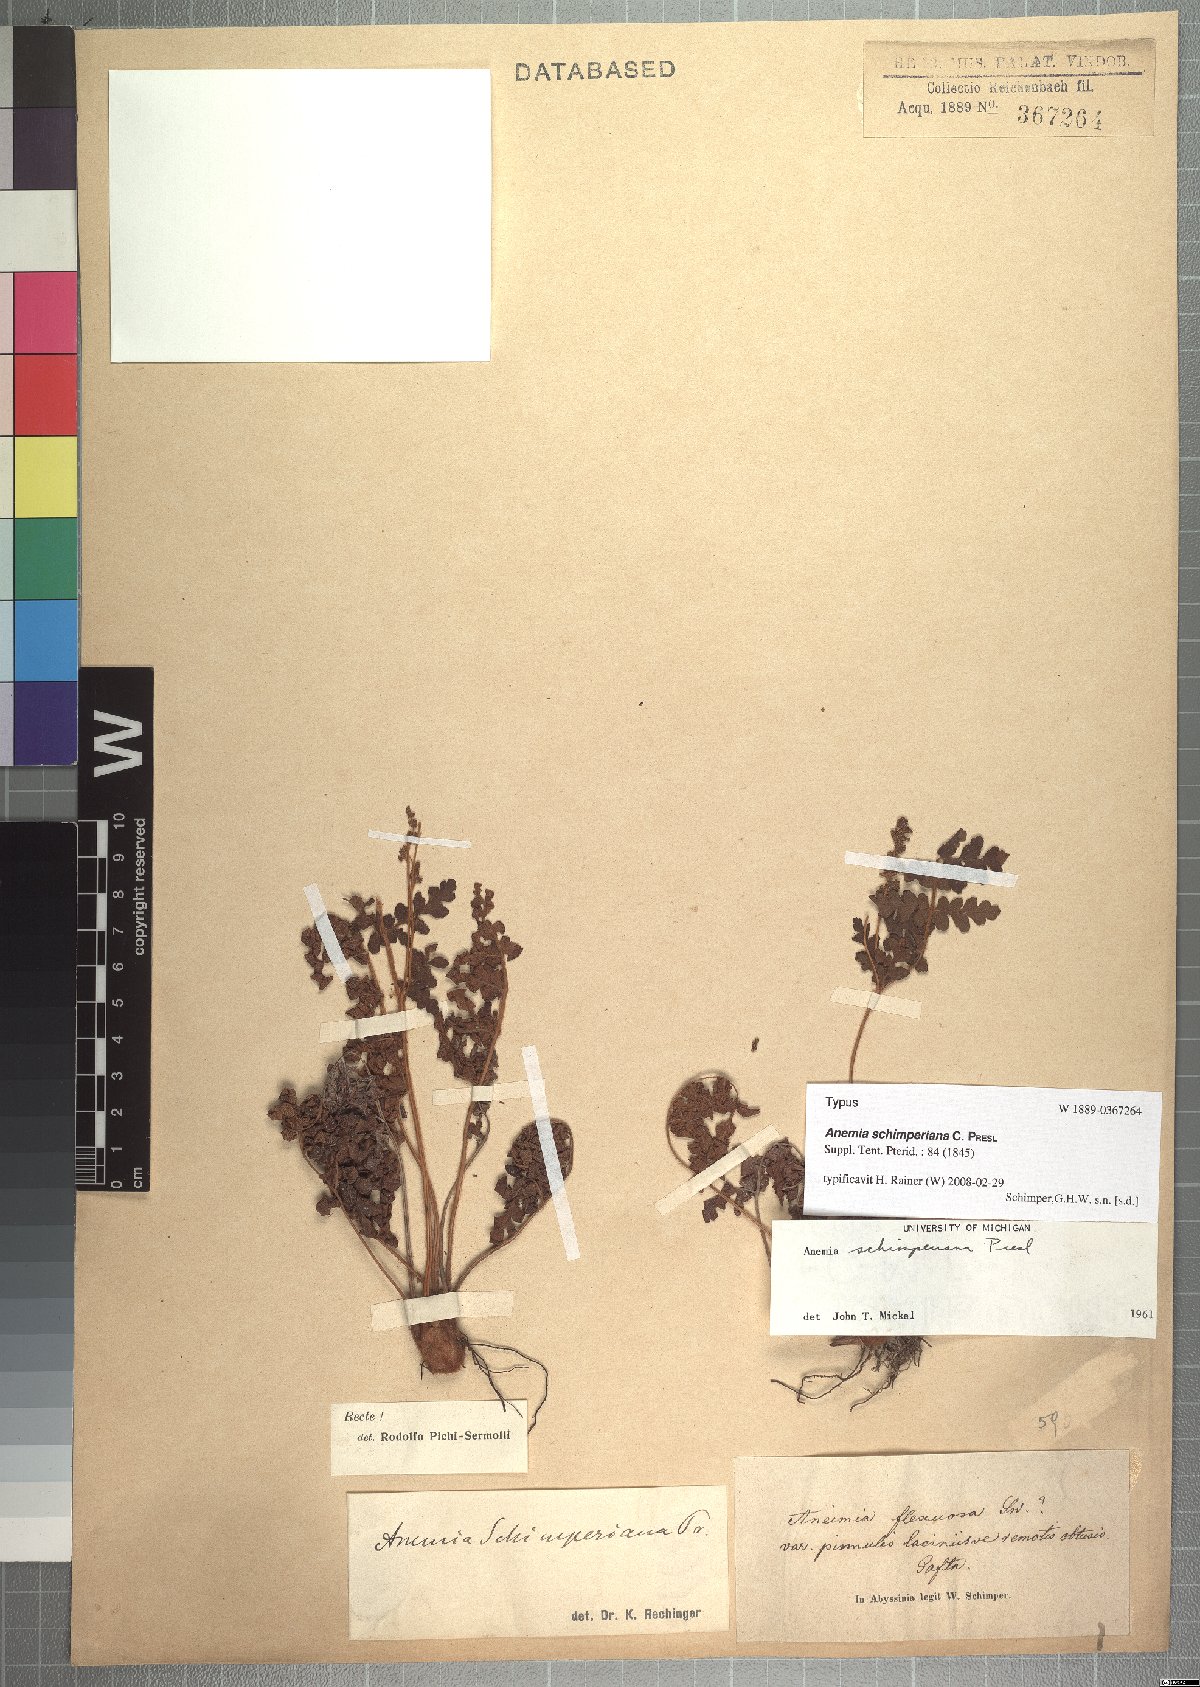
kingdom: Plantae
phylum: Tracheophyta
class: Polypodiopsida
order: Schizaeales
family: Anemiaceae
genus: Anemia
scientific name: Anemia schimperiana
